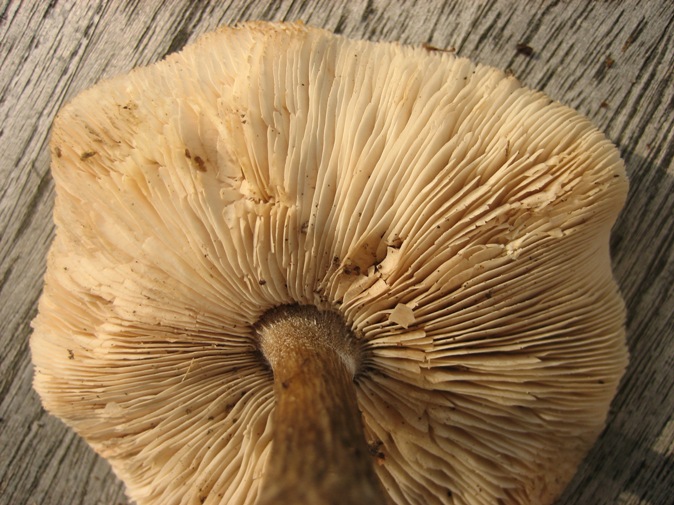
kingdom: Fungi
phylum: Basidiomycota
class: Agaricomycetes
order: Agaricales
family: Tricholomataceae
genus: Melanoleuca
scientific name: Melanoleuca polioleuca
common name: almindelig munkehat
